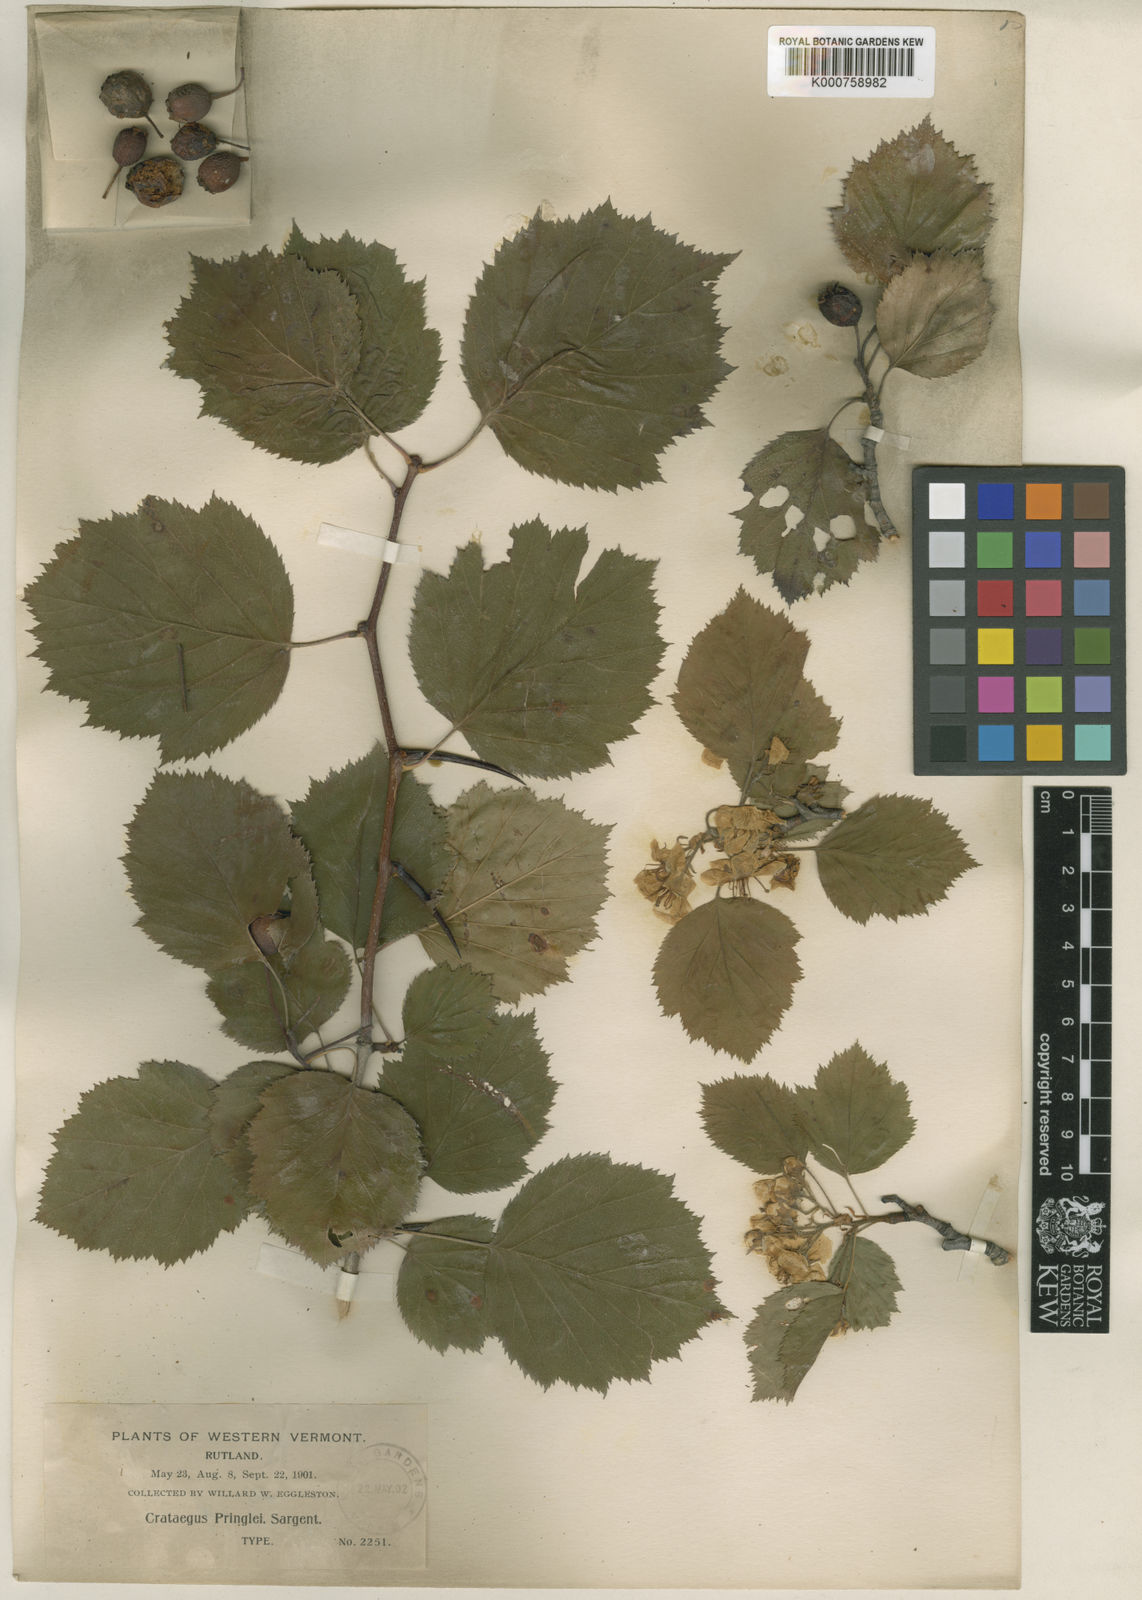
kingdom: Plantae
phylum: Tracheophyta
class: Magnoliopsida
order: Rosales
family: Rosaceae
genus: Crataegus
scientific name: Crataegus coccinea
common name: Scarlet hawthorn
